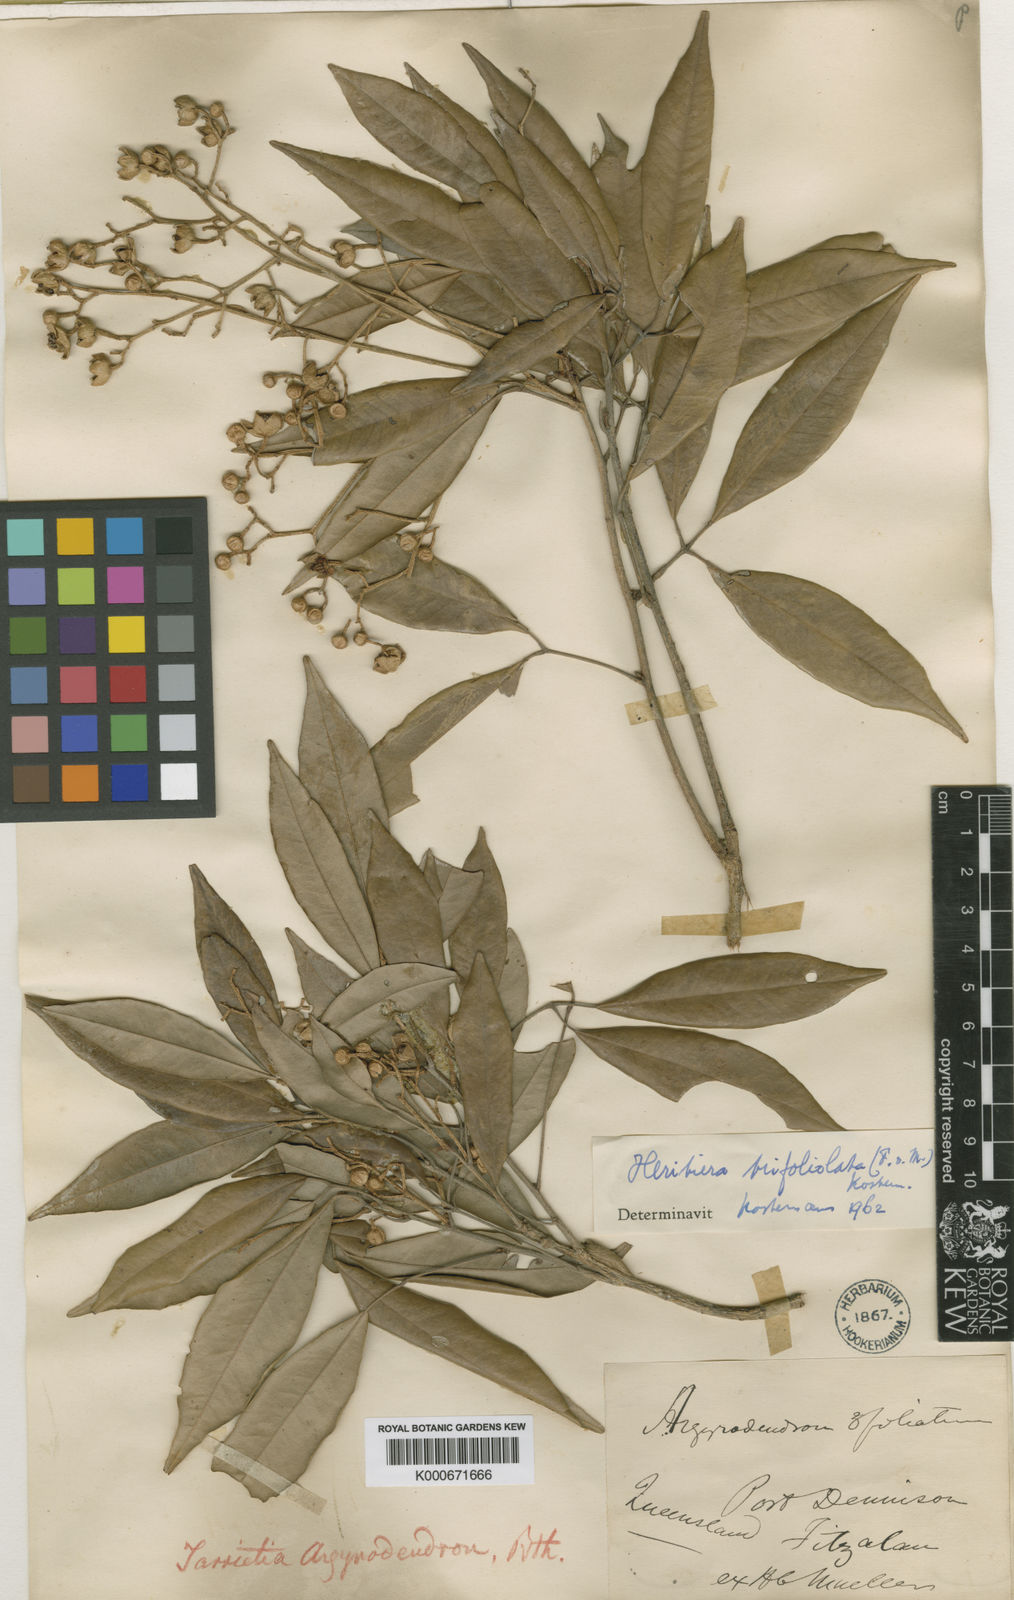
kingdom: Plantae
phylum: Tracheophyta
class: Magnoliopsida
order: Malvales
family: Malvaceae
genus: Argyrodendron
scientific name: Argyrodendron trifoliolatum
